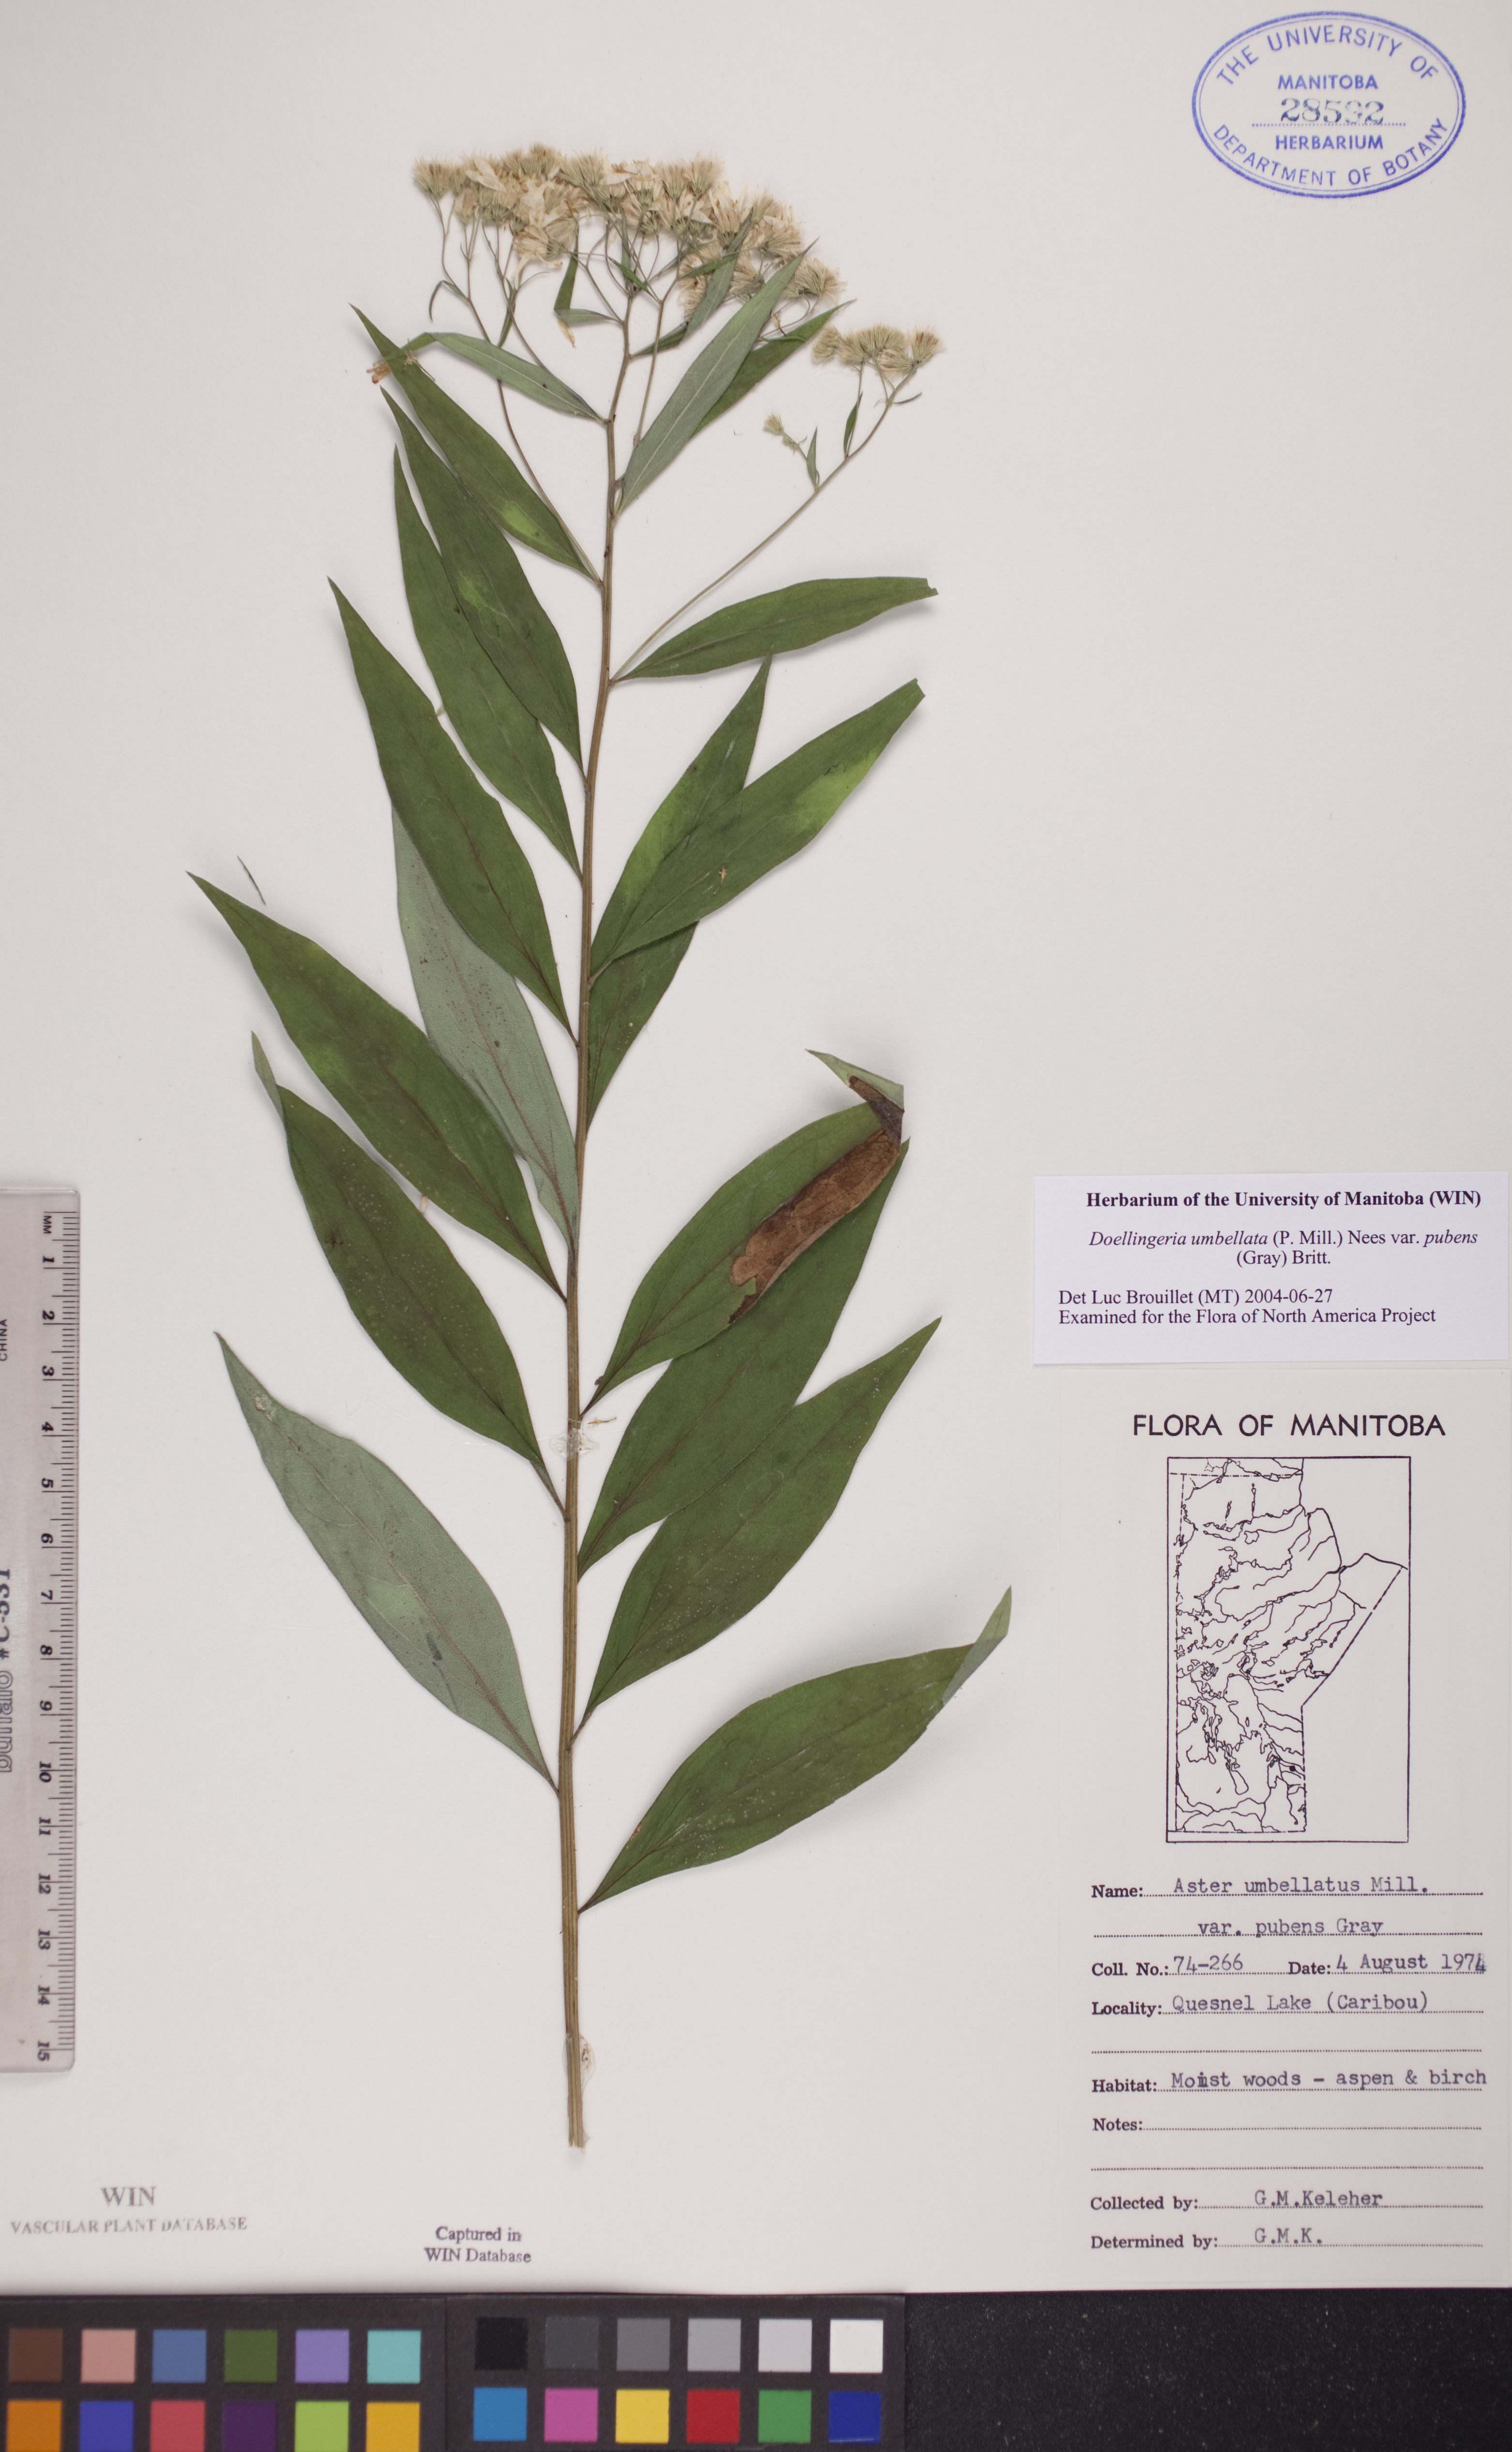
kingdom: Plantae
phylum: Tracheophyta
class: Magnoliopsida
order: Asterales
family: Asteraceae
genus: Doellingeria
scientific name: Doellingeria umbellata
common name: Flat-top white aster
